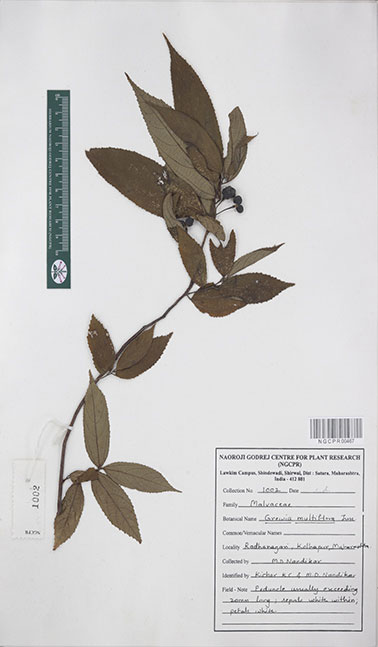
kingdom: Plantae
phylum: Tracheophyta
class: Magnoliopsida
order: Malvales
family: Malvaceae
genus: Grewia
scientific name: Grewia multiflora
